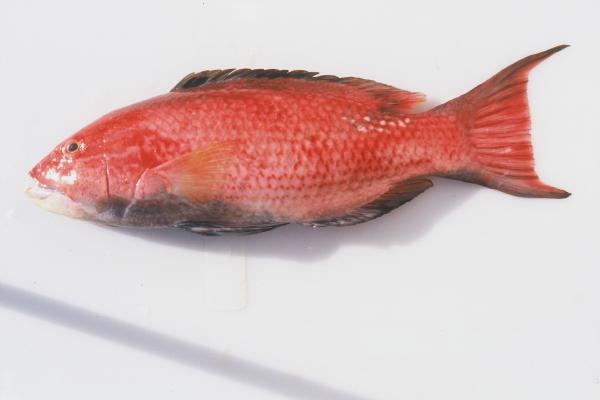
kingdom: Animalia
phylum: Chordata
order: Perciformes
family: Labridae
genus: Bodianus
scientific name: Bodianus bilunulatus
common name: Tarry hogfish
